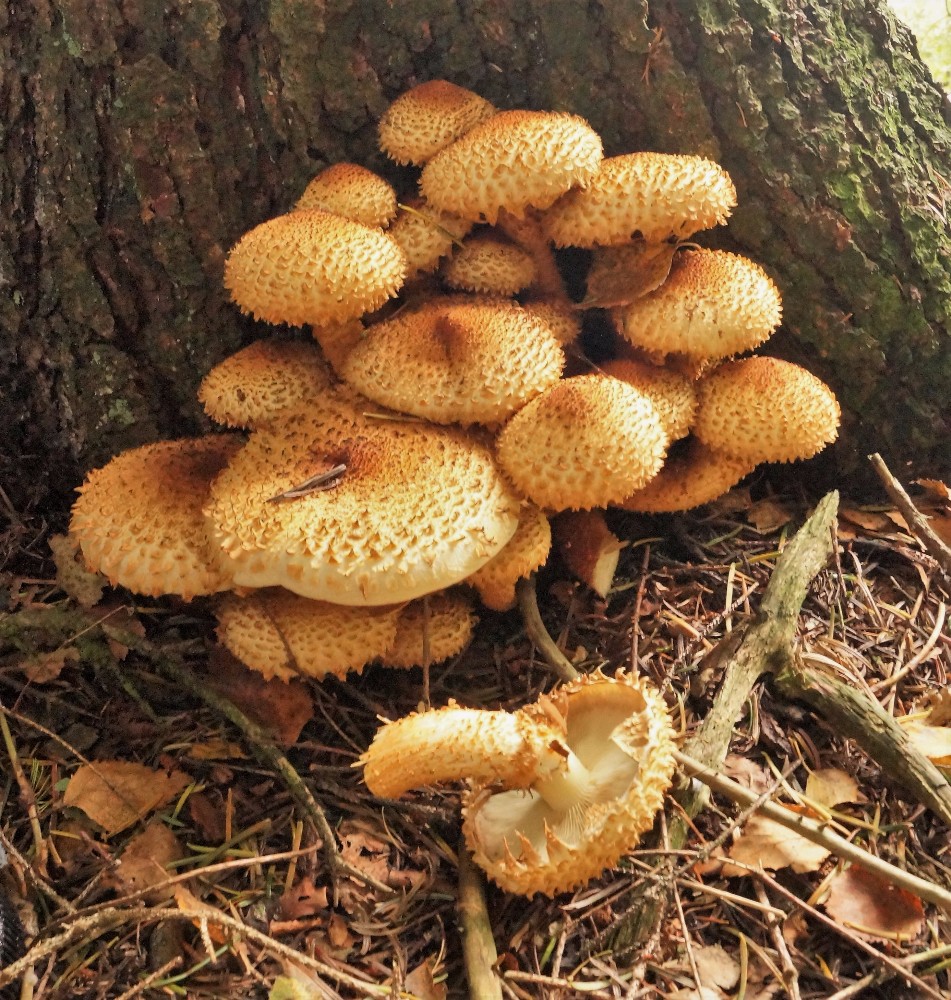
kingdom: Fungi
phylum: Basidiomycota
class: Agaricomycetes
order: Agaricales
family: Strophariaceae
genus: Pholiota
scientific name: Pholiota squarrosa
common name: krumskællet skælhat
